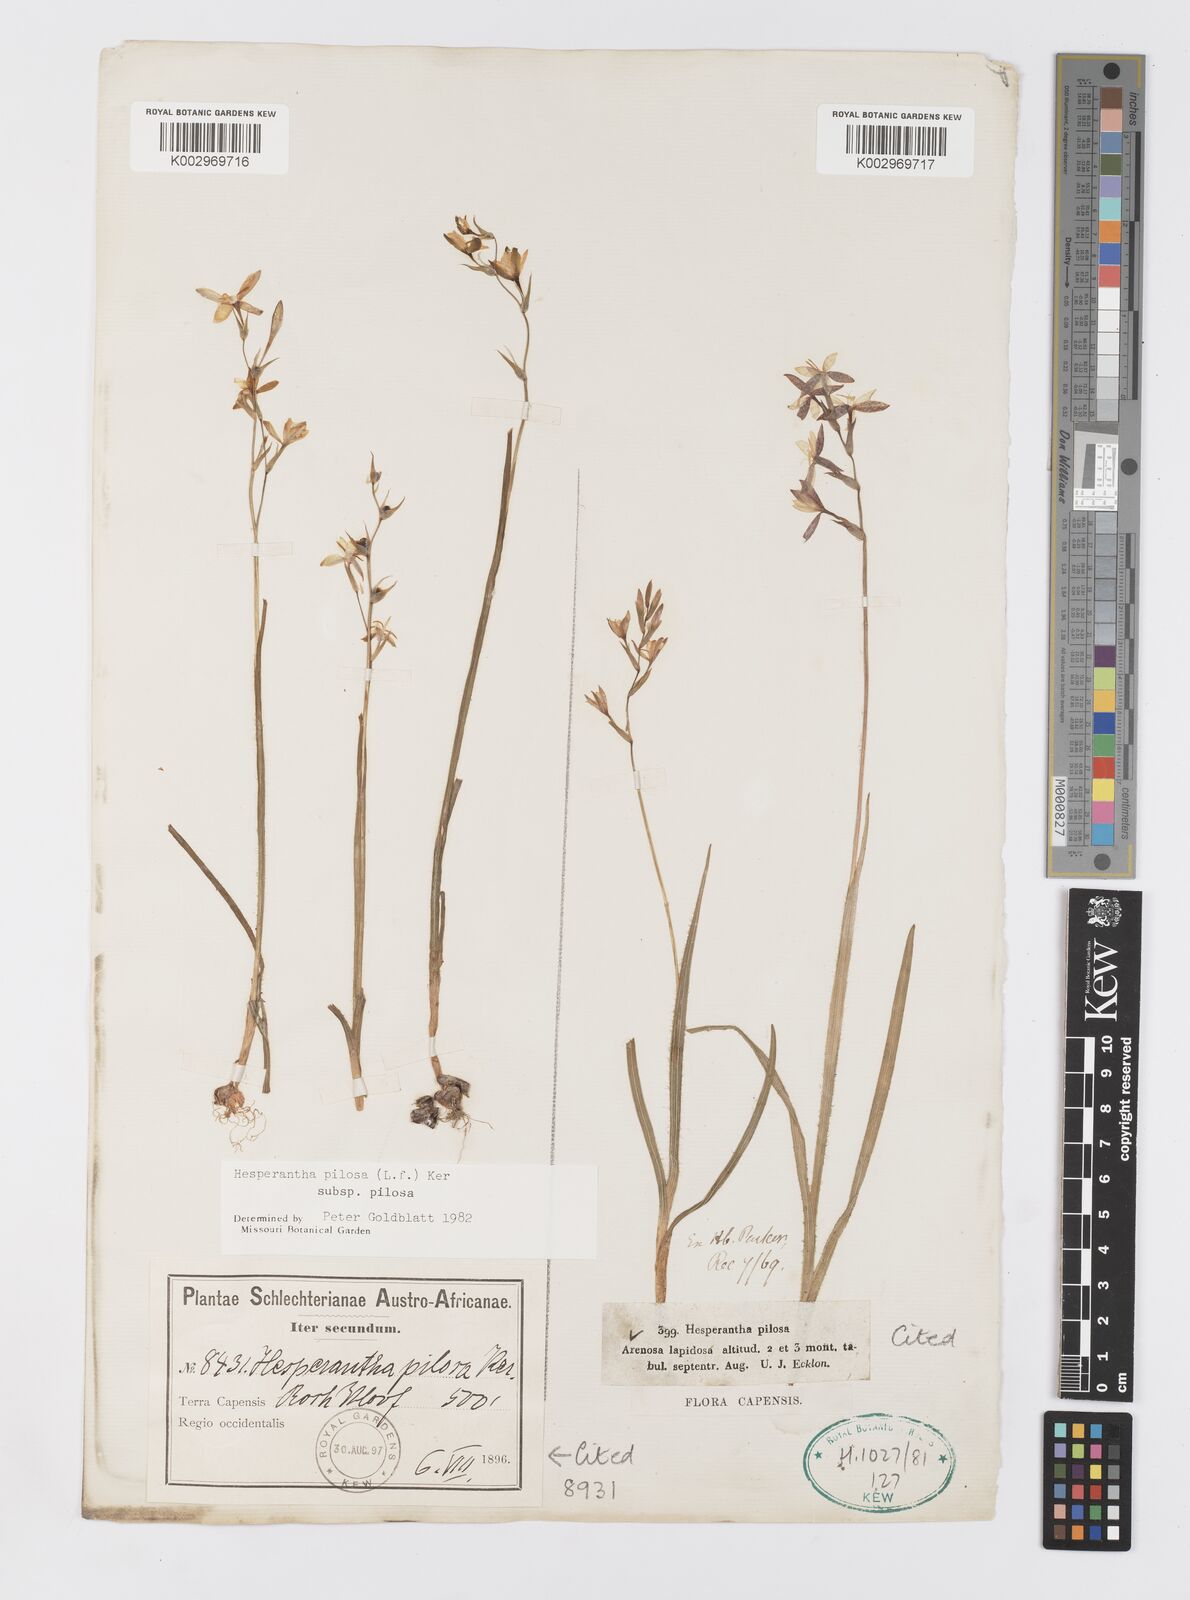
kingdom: Plantae
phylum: Tracheophyta
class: Liliopsida
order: Asparagales
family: Iridaceae
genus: Hesperantha
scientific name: Hesperantha pilosa
